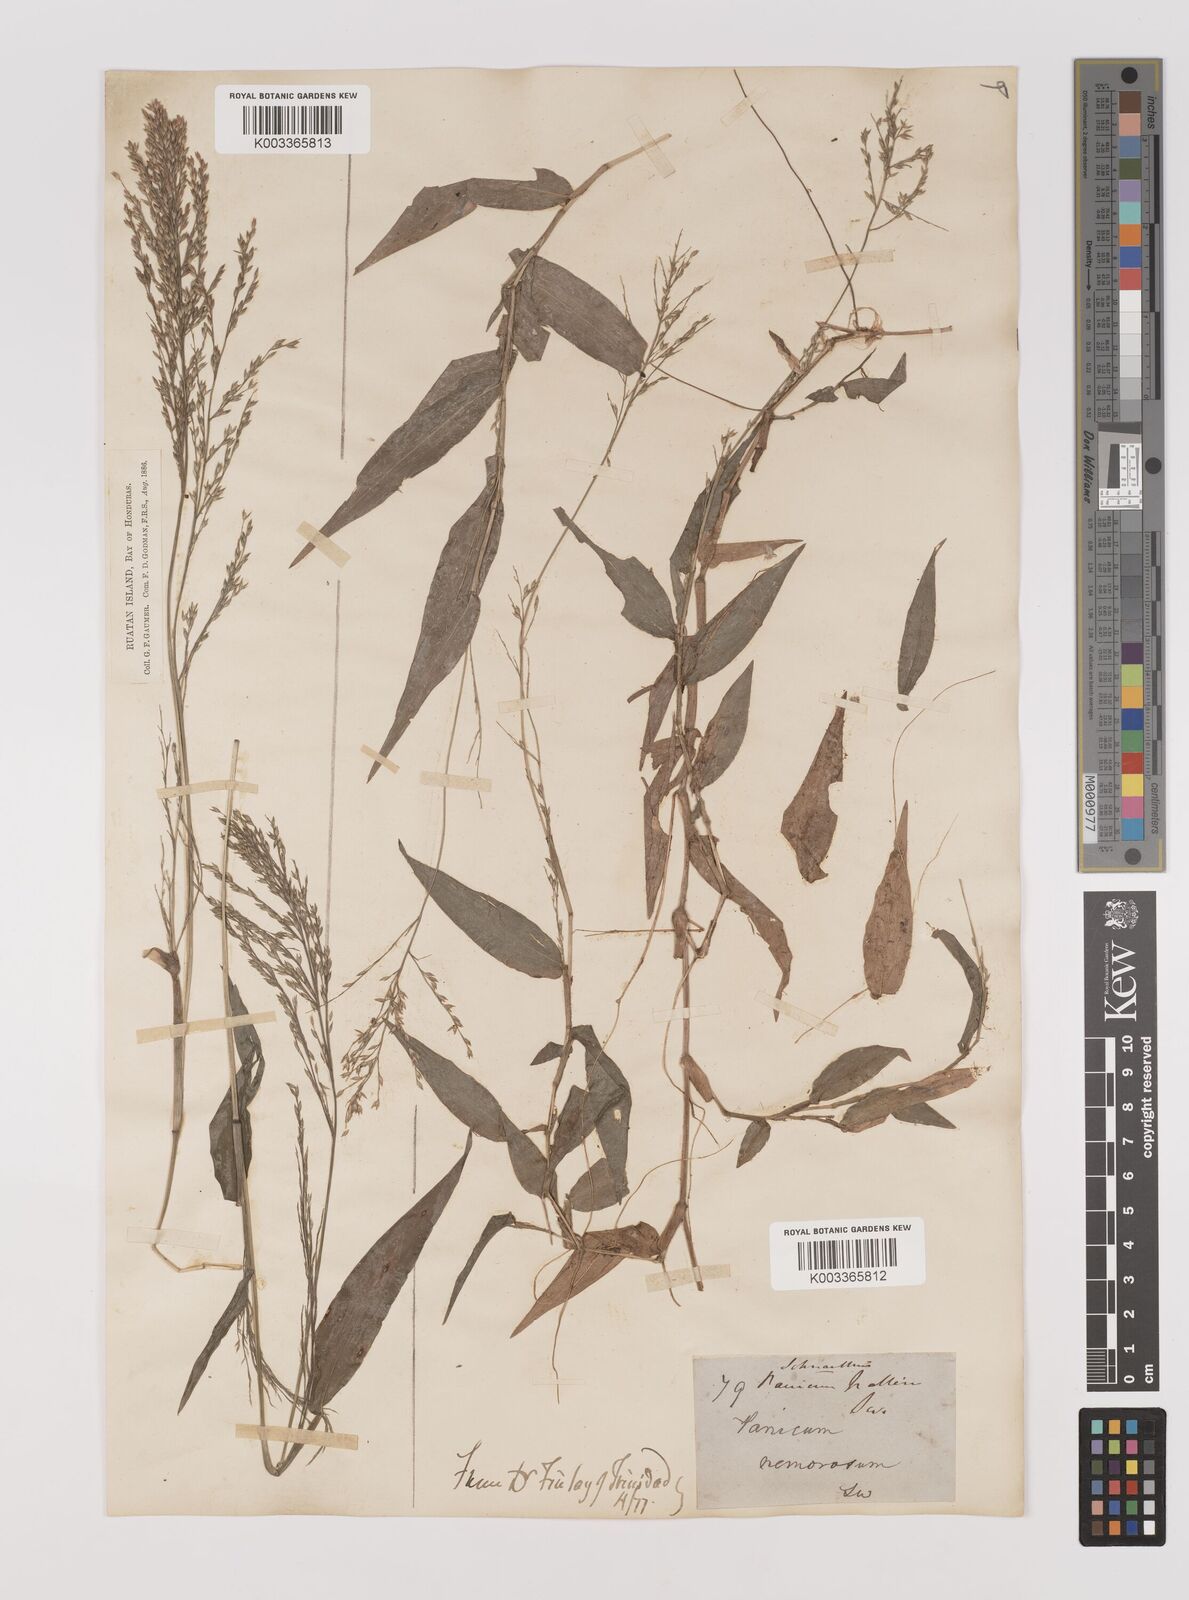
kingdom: Plantae
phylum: Tracheophyta
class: Liliopsida
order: Poales
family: Poaceae
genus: Ichnanthus
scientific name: Ichnanthus pallens
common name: Water grass
